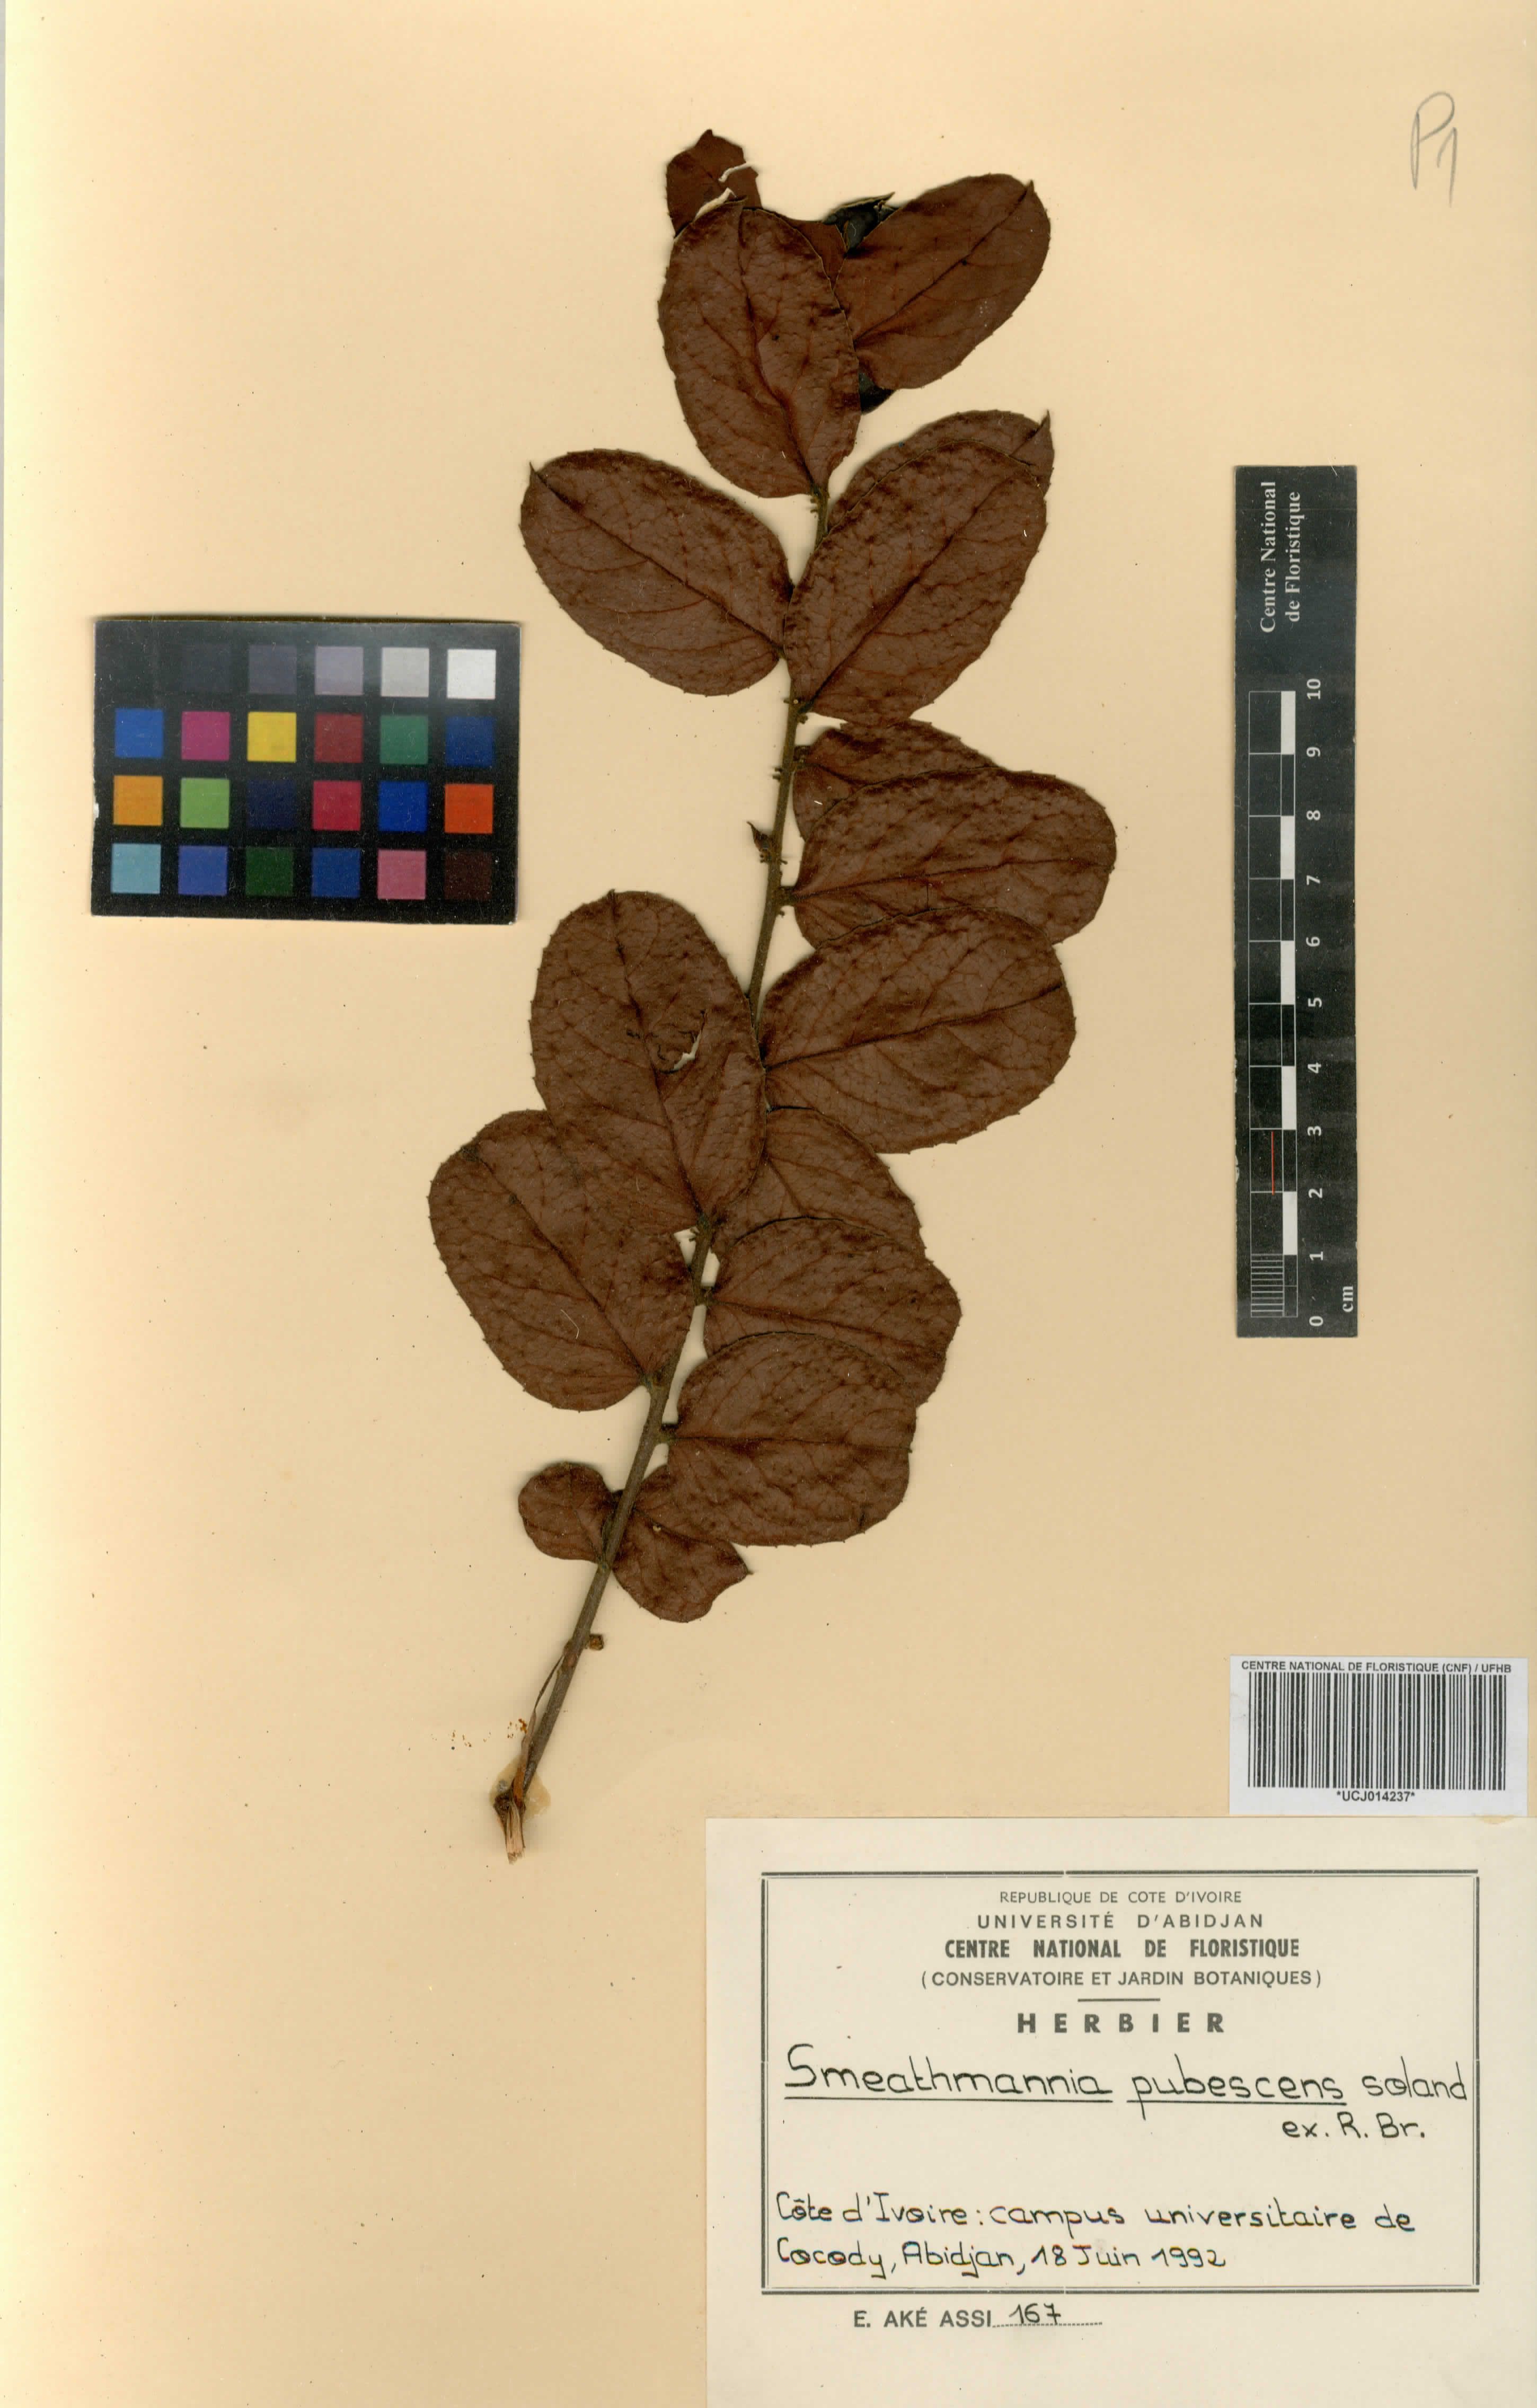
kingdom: Plantae
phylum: Tracheophyta
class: Magnoliopsida
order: Malpighiales
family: Passifloraceae
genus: Smeathmannia
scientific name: Smeathmannia pubescens
